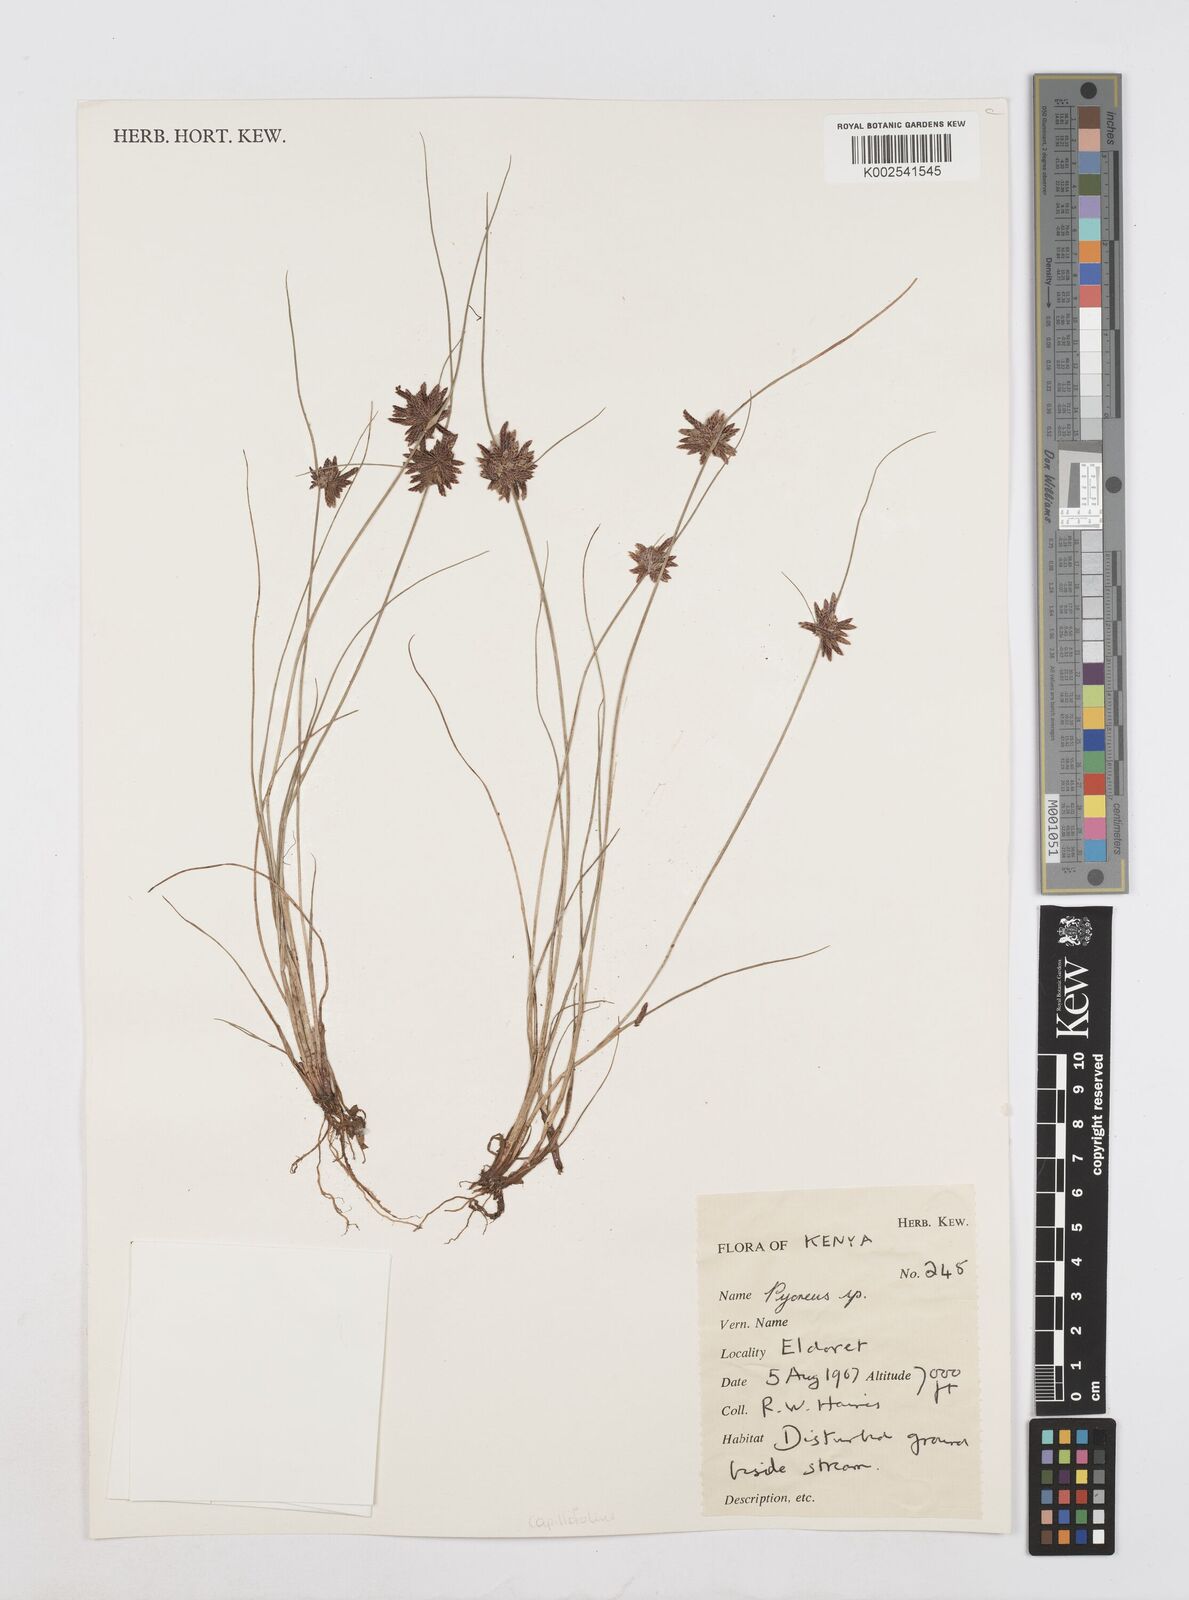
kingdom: Plantae
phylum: Tracheophyta
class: Liliopsida
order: Poales
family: Cyperaceae
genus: Cyperus
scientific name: Cyperus capillifolius
